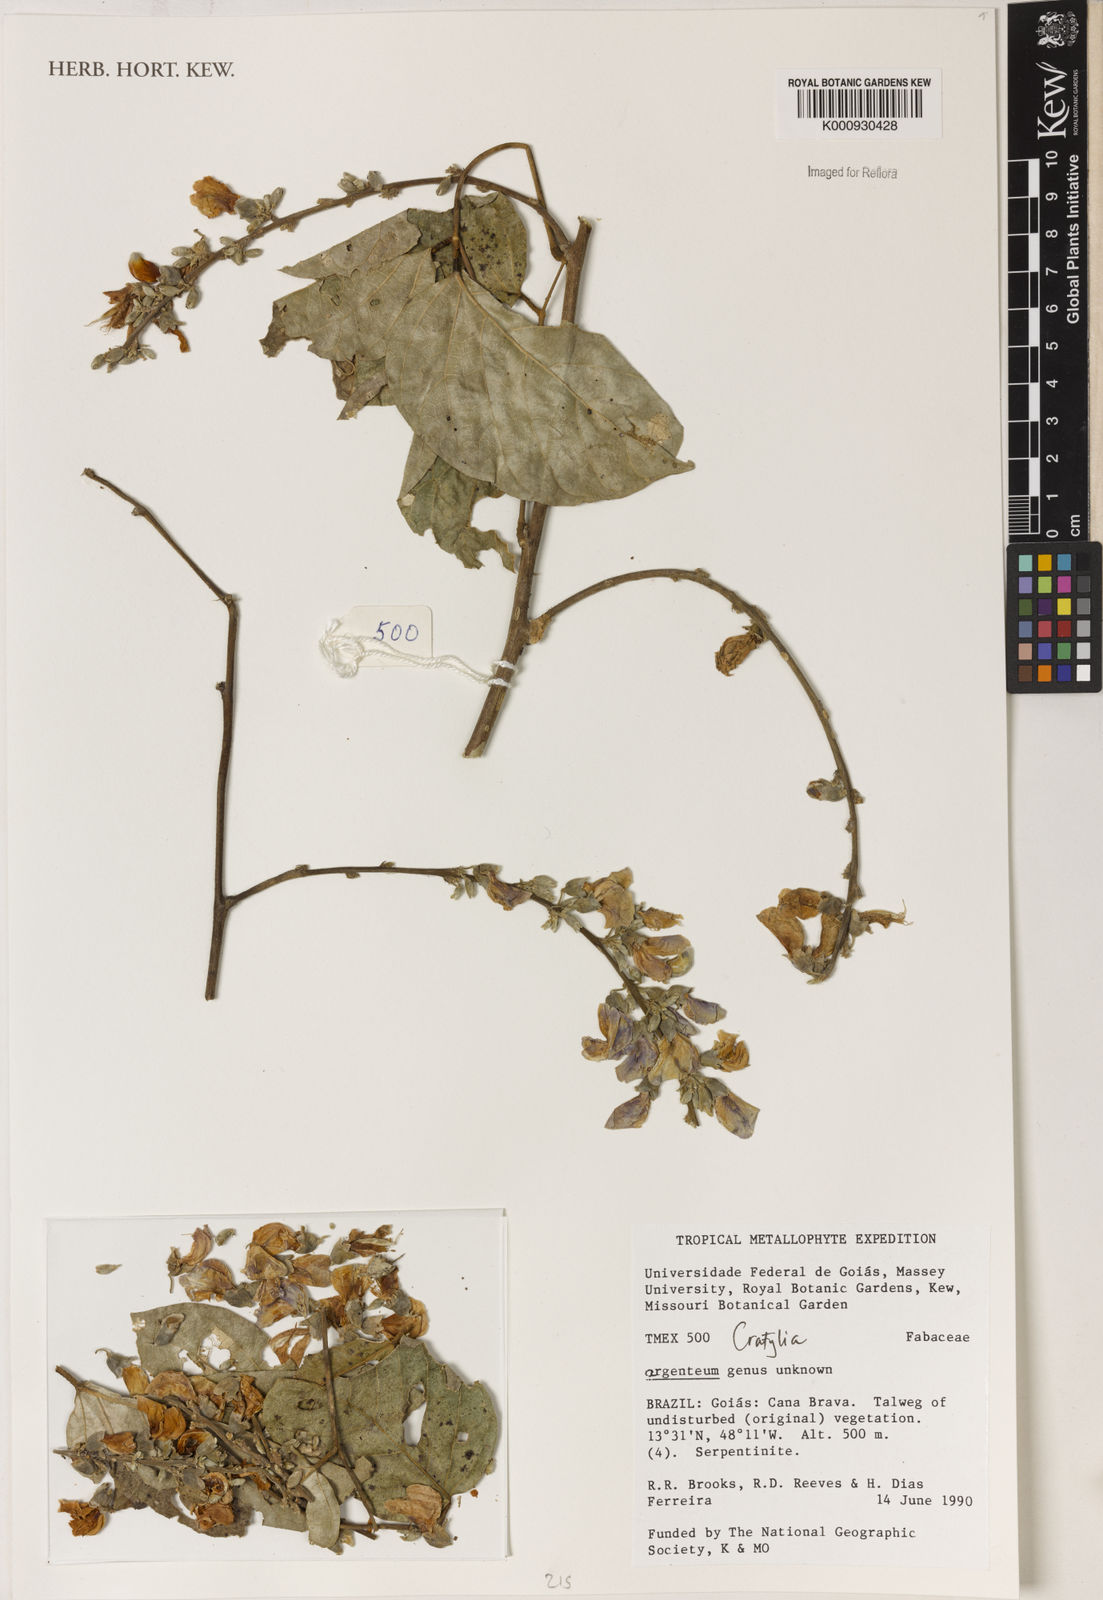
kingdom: Plantae
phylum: Tracheophyta
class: Magnoliopsida
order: Fabales
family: Fabaceae
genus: Cratylia
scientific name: Cratylia
